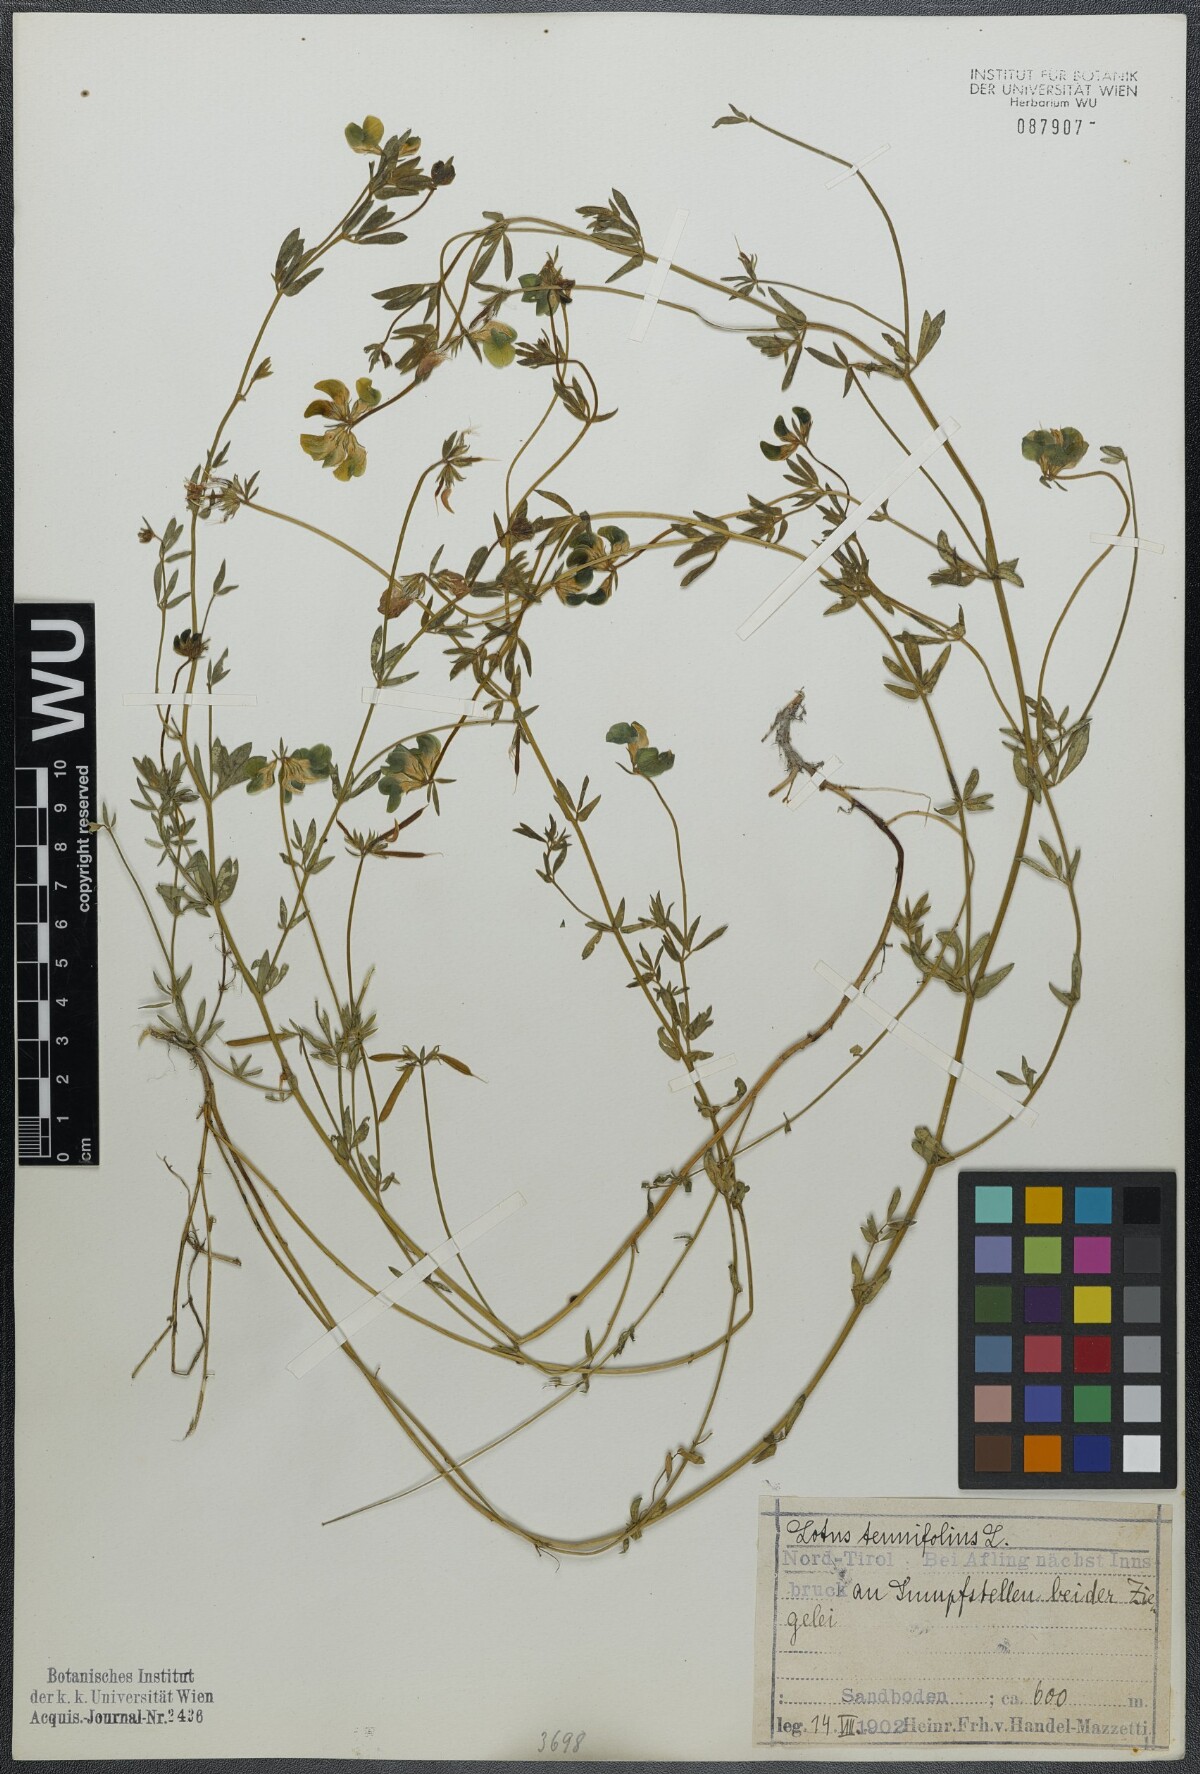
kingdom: Plantae
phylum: Tracheophyta
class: Magnoliopsida
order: Fabales
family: Fabaceae
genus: Lotus
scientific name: Lotus tenuis
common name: Narrow-leaved bird's-foot-trefoil
